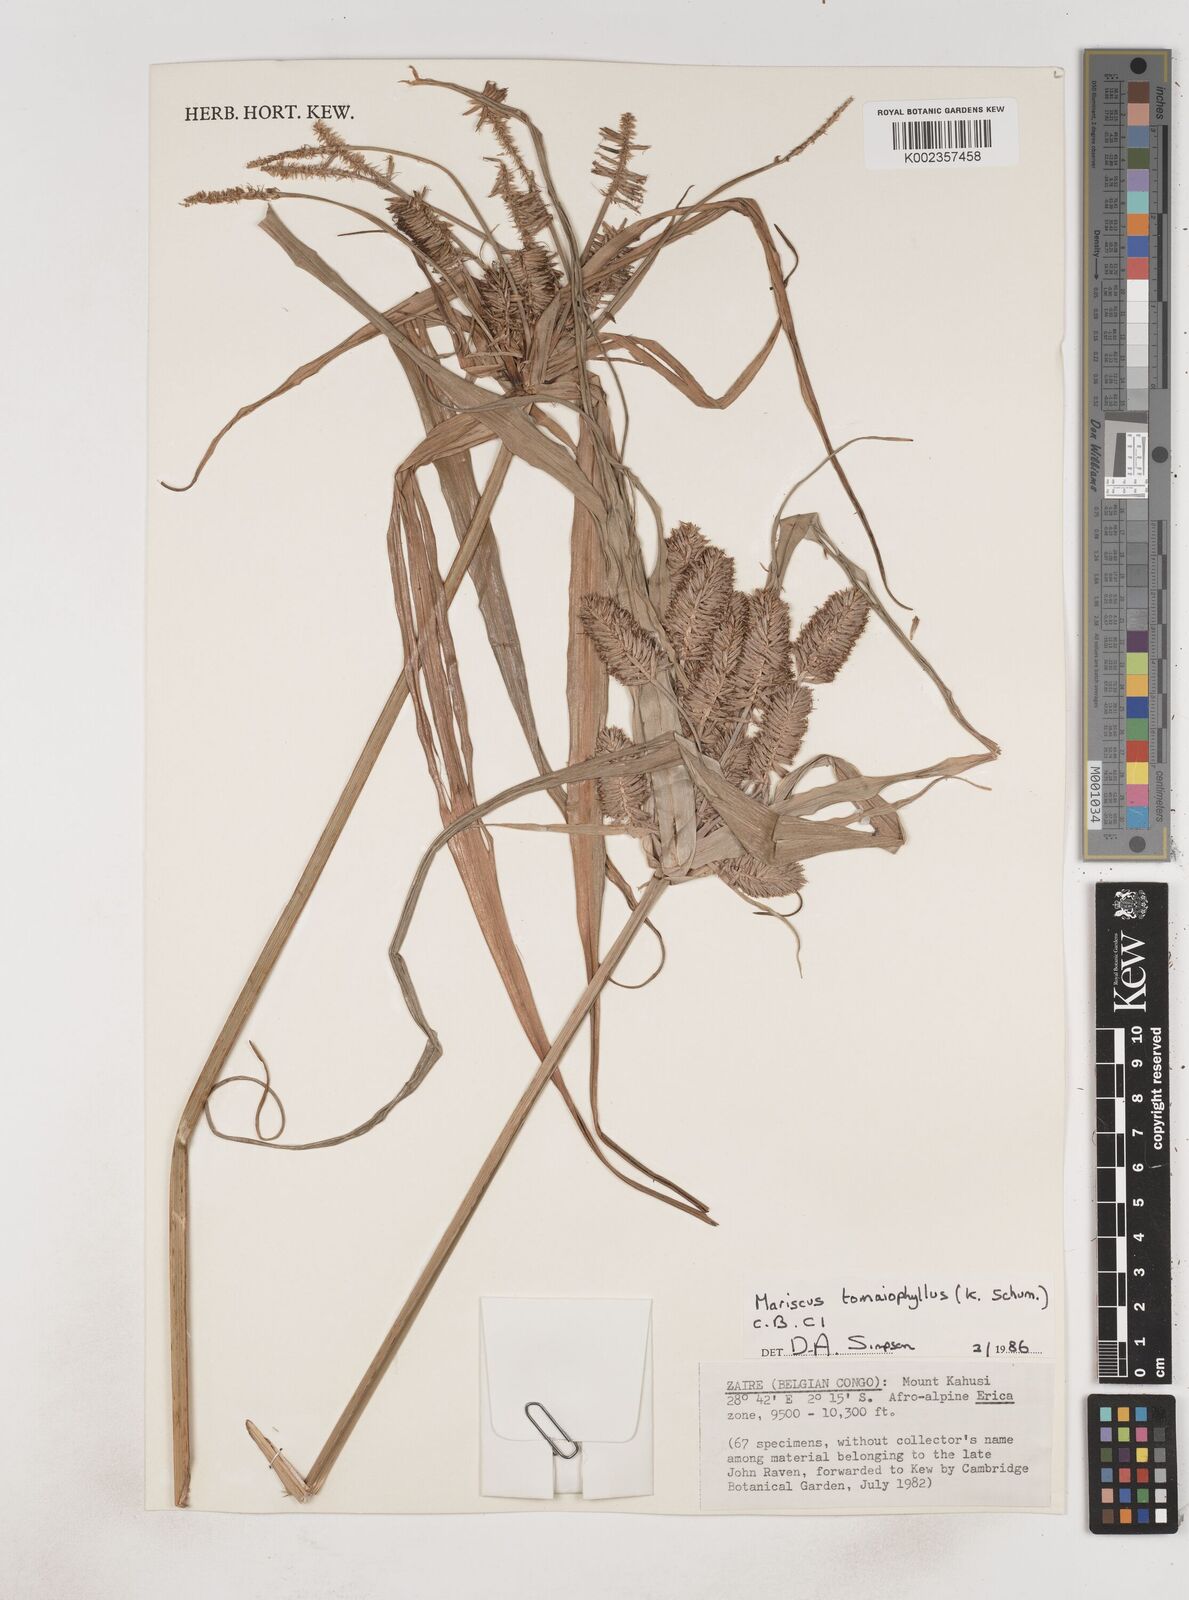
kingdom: Plantae
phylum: Tracheophyta
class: Liliopsida
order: Poales
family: Cyperaceae
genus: Cyperus
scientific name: Cyperus tomaiophyllus
